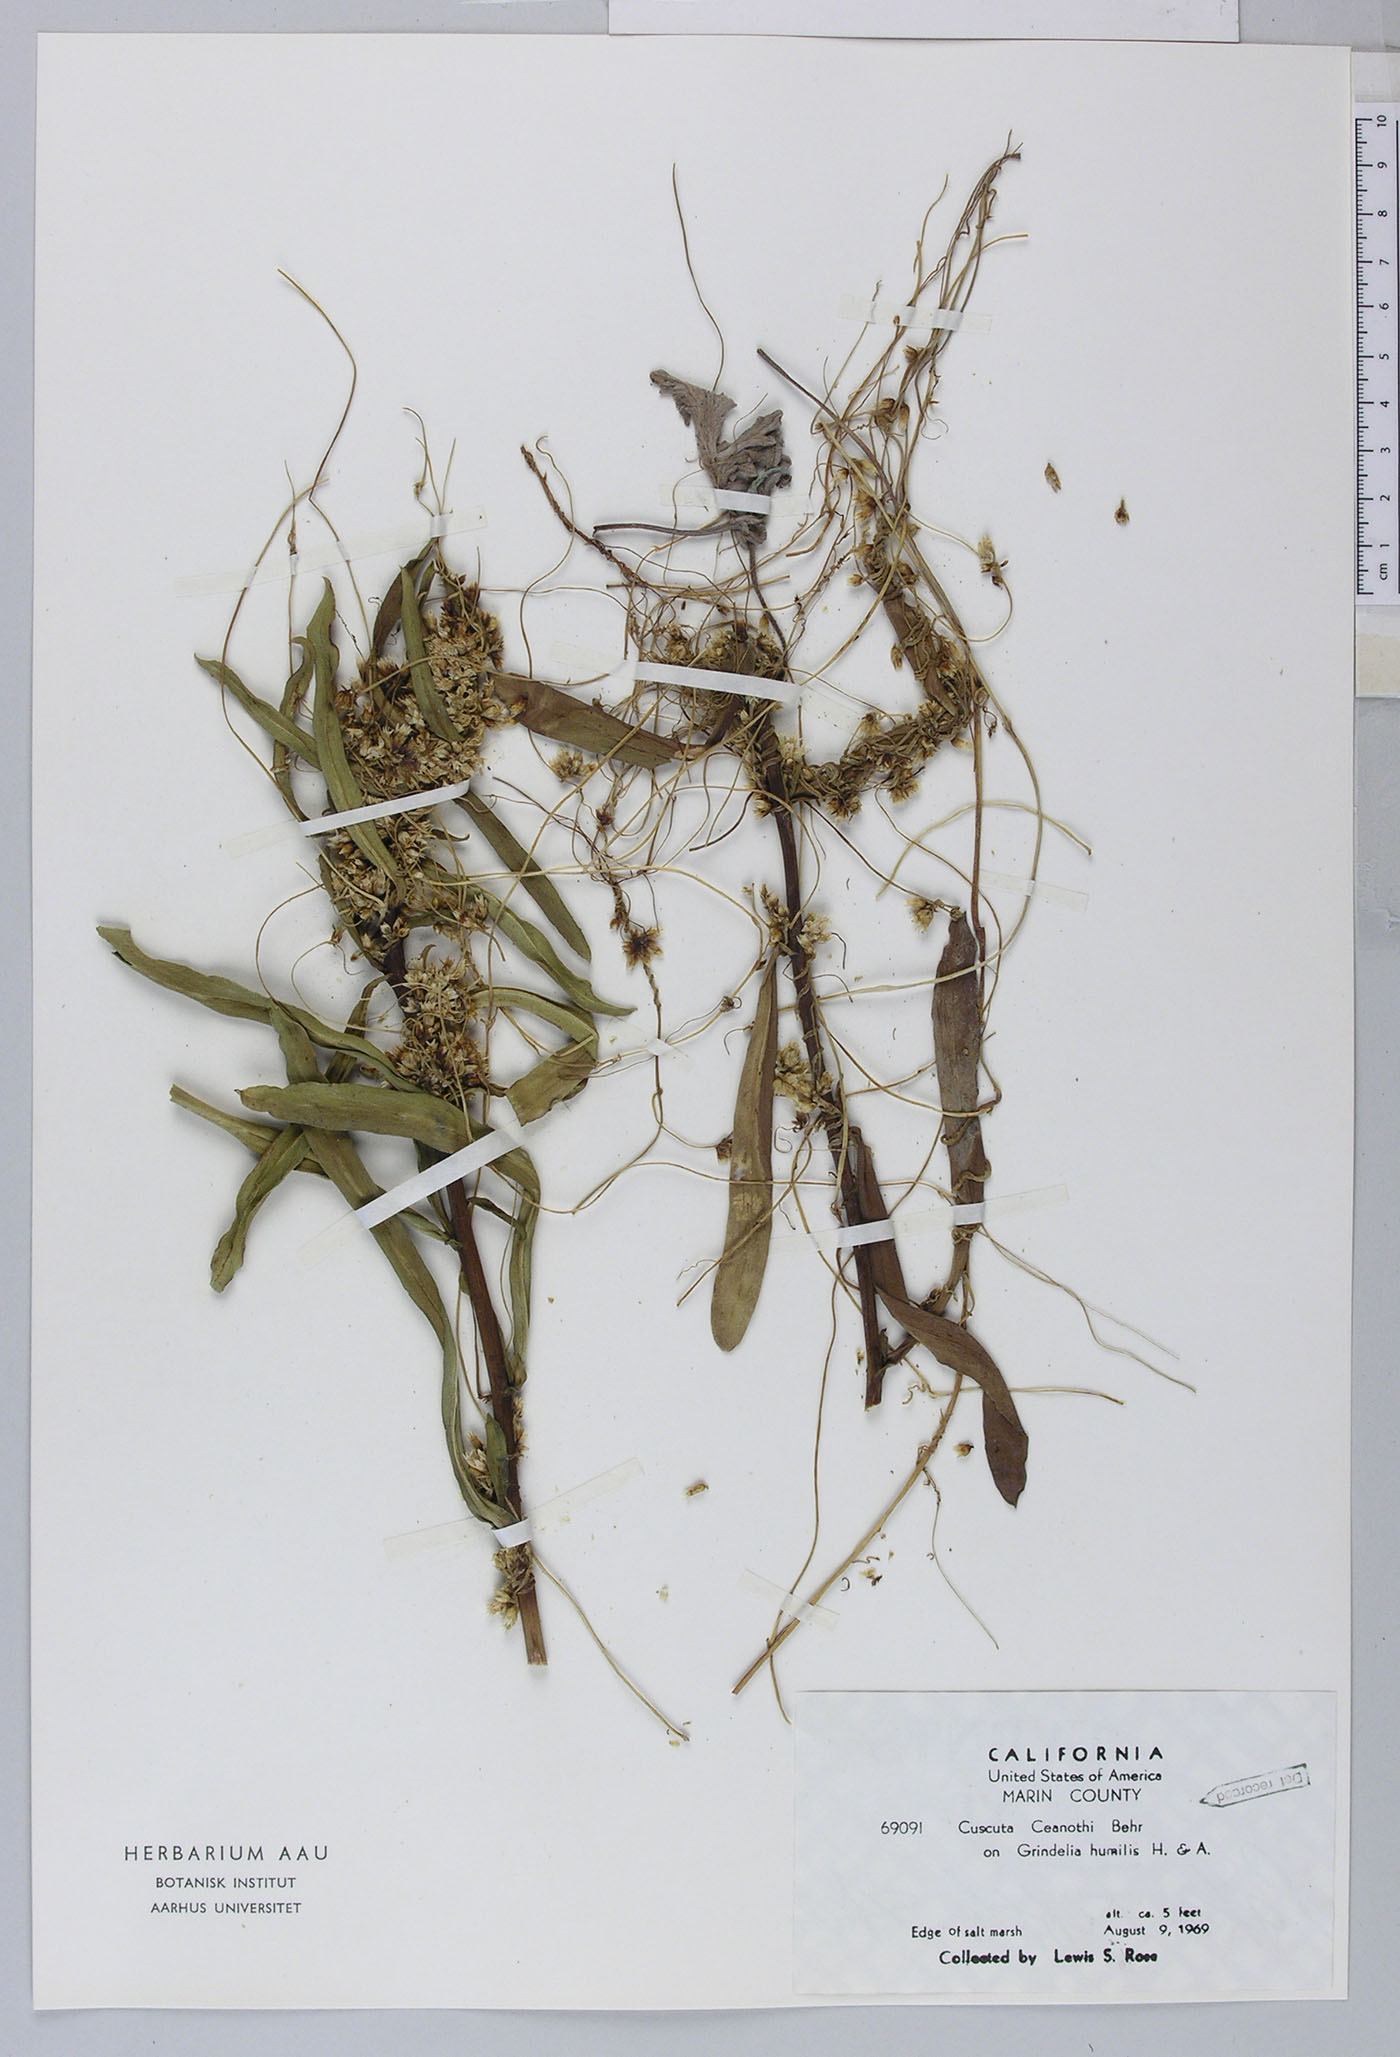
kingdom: Plantae
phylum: Tracheophyta
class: Magnoliopsida
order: Solanales
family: Convolvulaceae
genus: Cuscuta
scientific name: Cuscuta subinclusa
